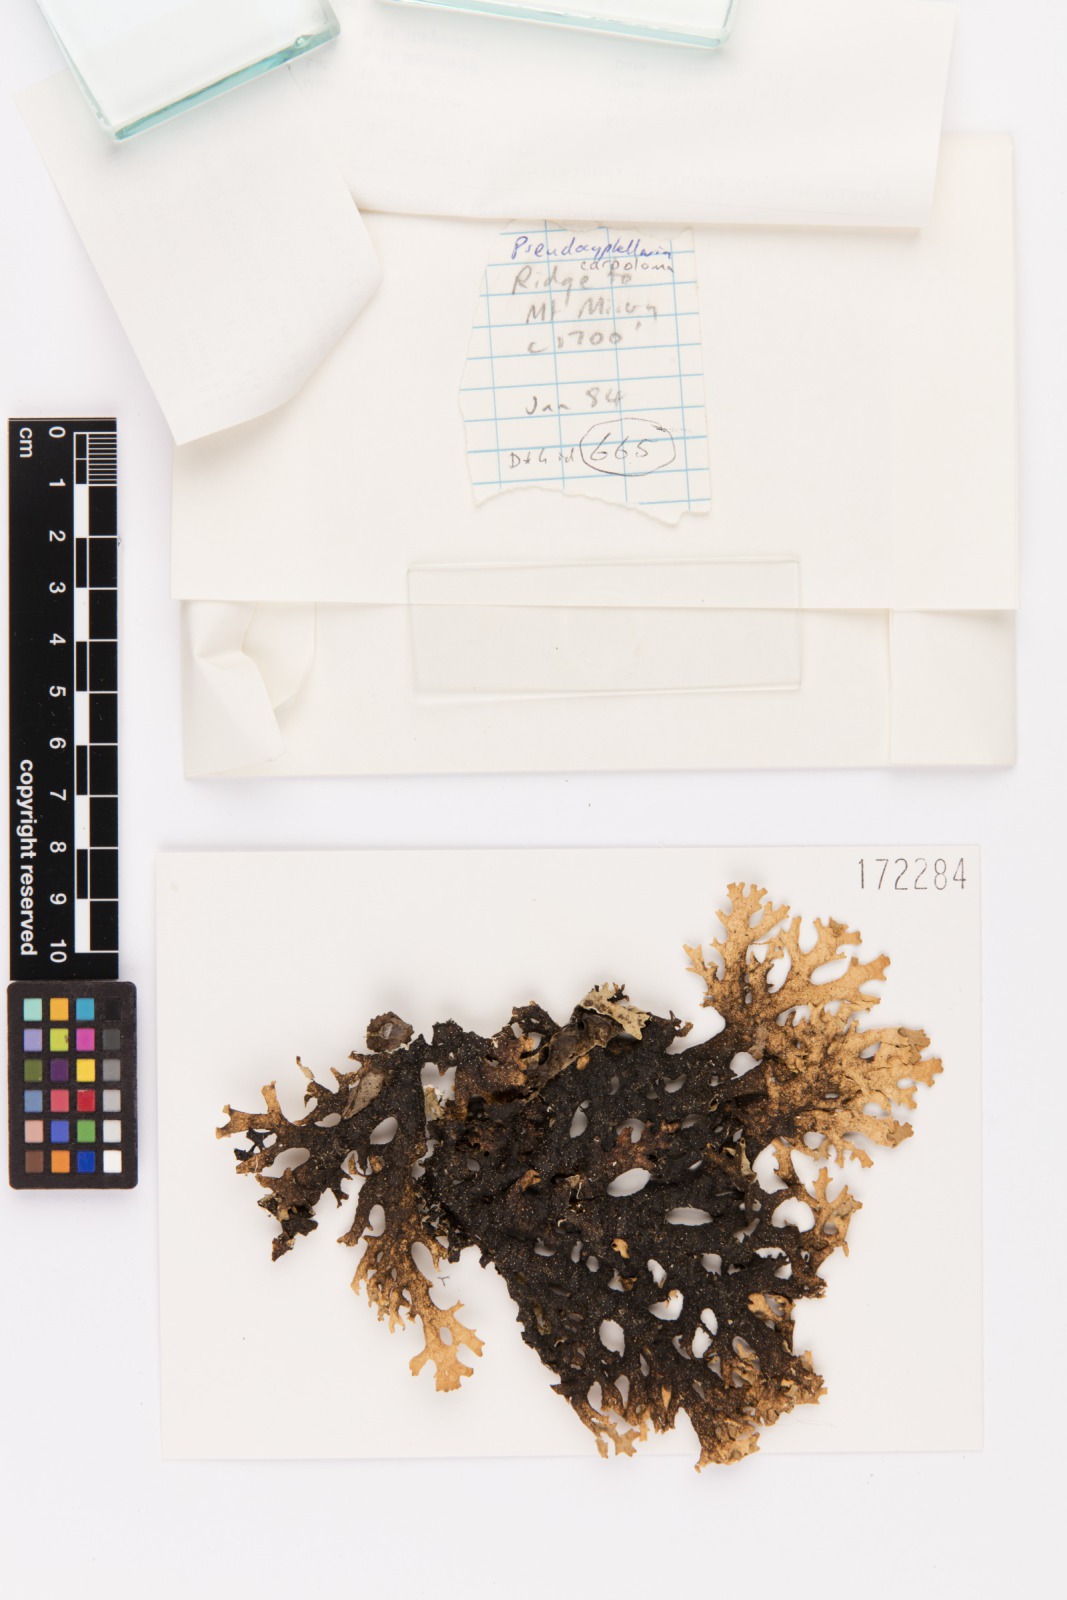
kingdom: Fungi
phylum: Ascomycota
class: Lecanoromycetes
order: Peltigerales
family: Lobariaceae
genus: Pseudocyphellaria
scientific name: Pseudocyphellaria carpoloma
